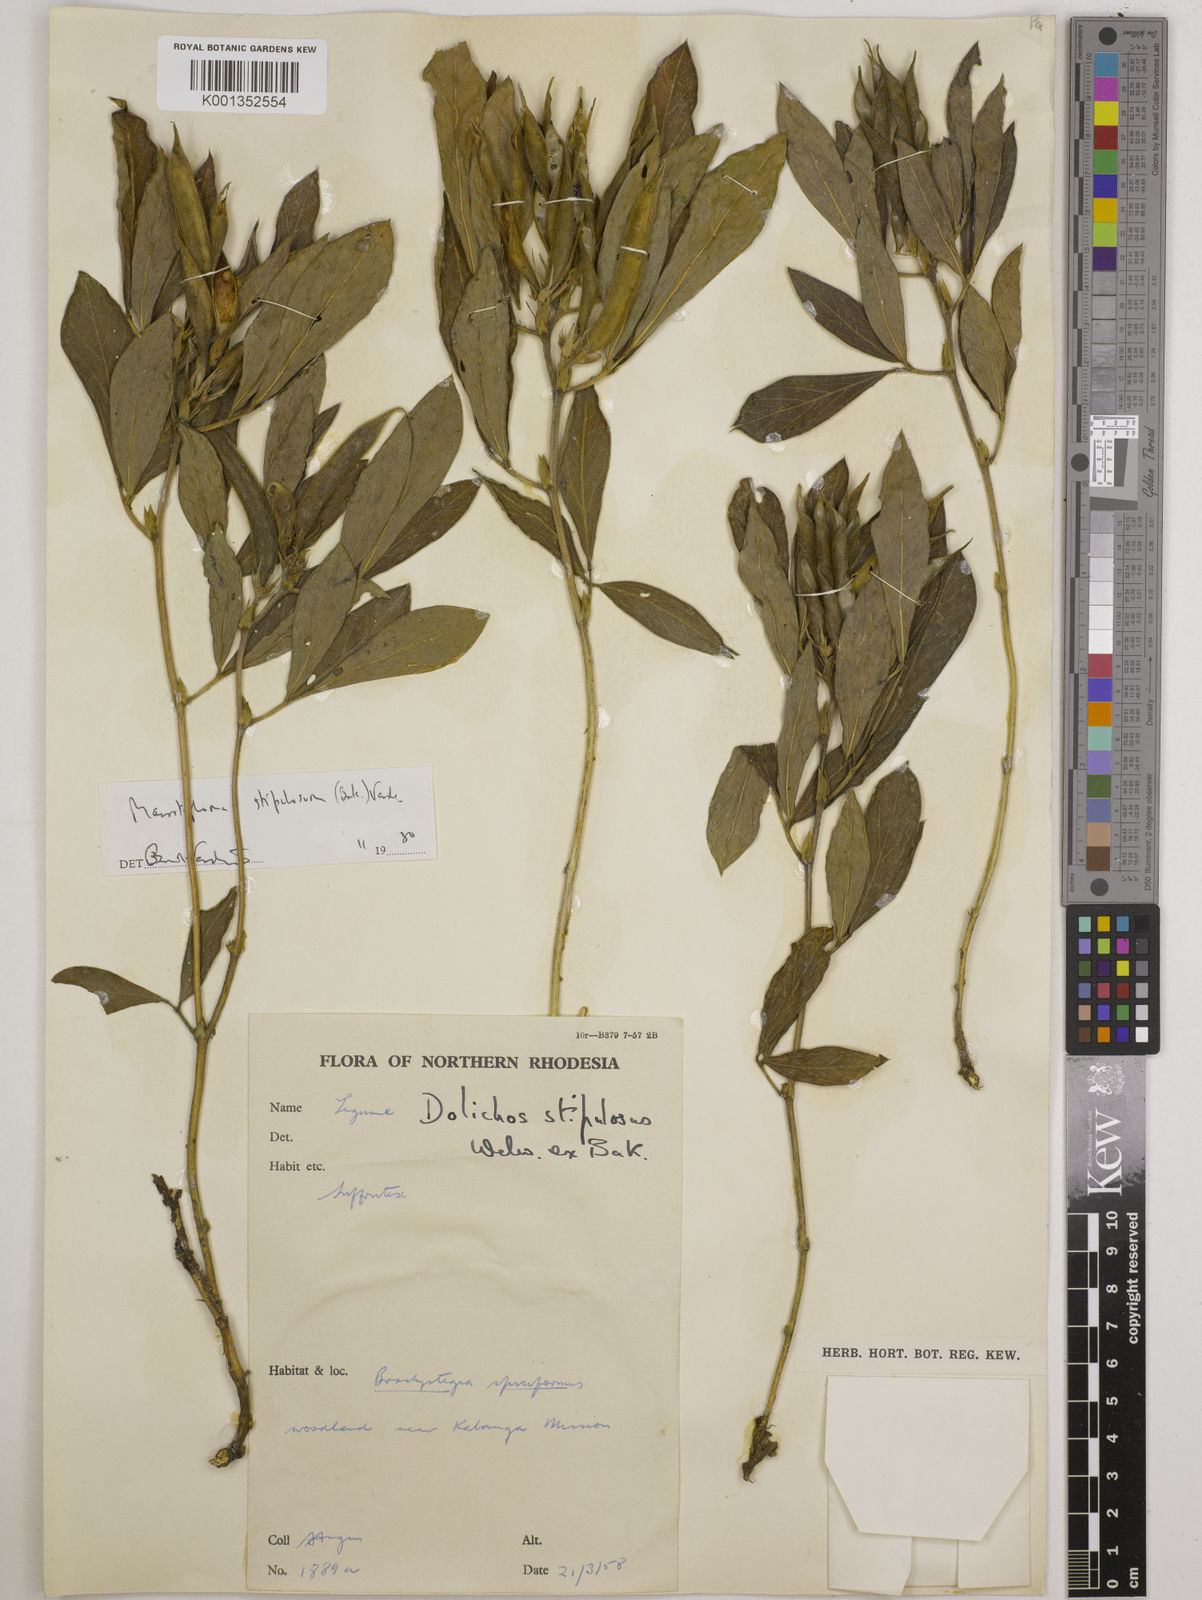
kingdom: Plantae
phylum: Tracheophyta
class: Magnoliopsida
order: Fabales
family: Fabaceae
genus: Macrotyloma
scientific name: Macrotyloma stipulosum
